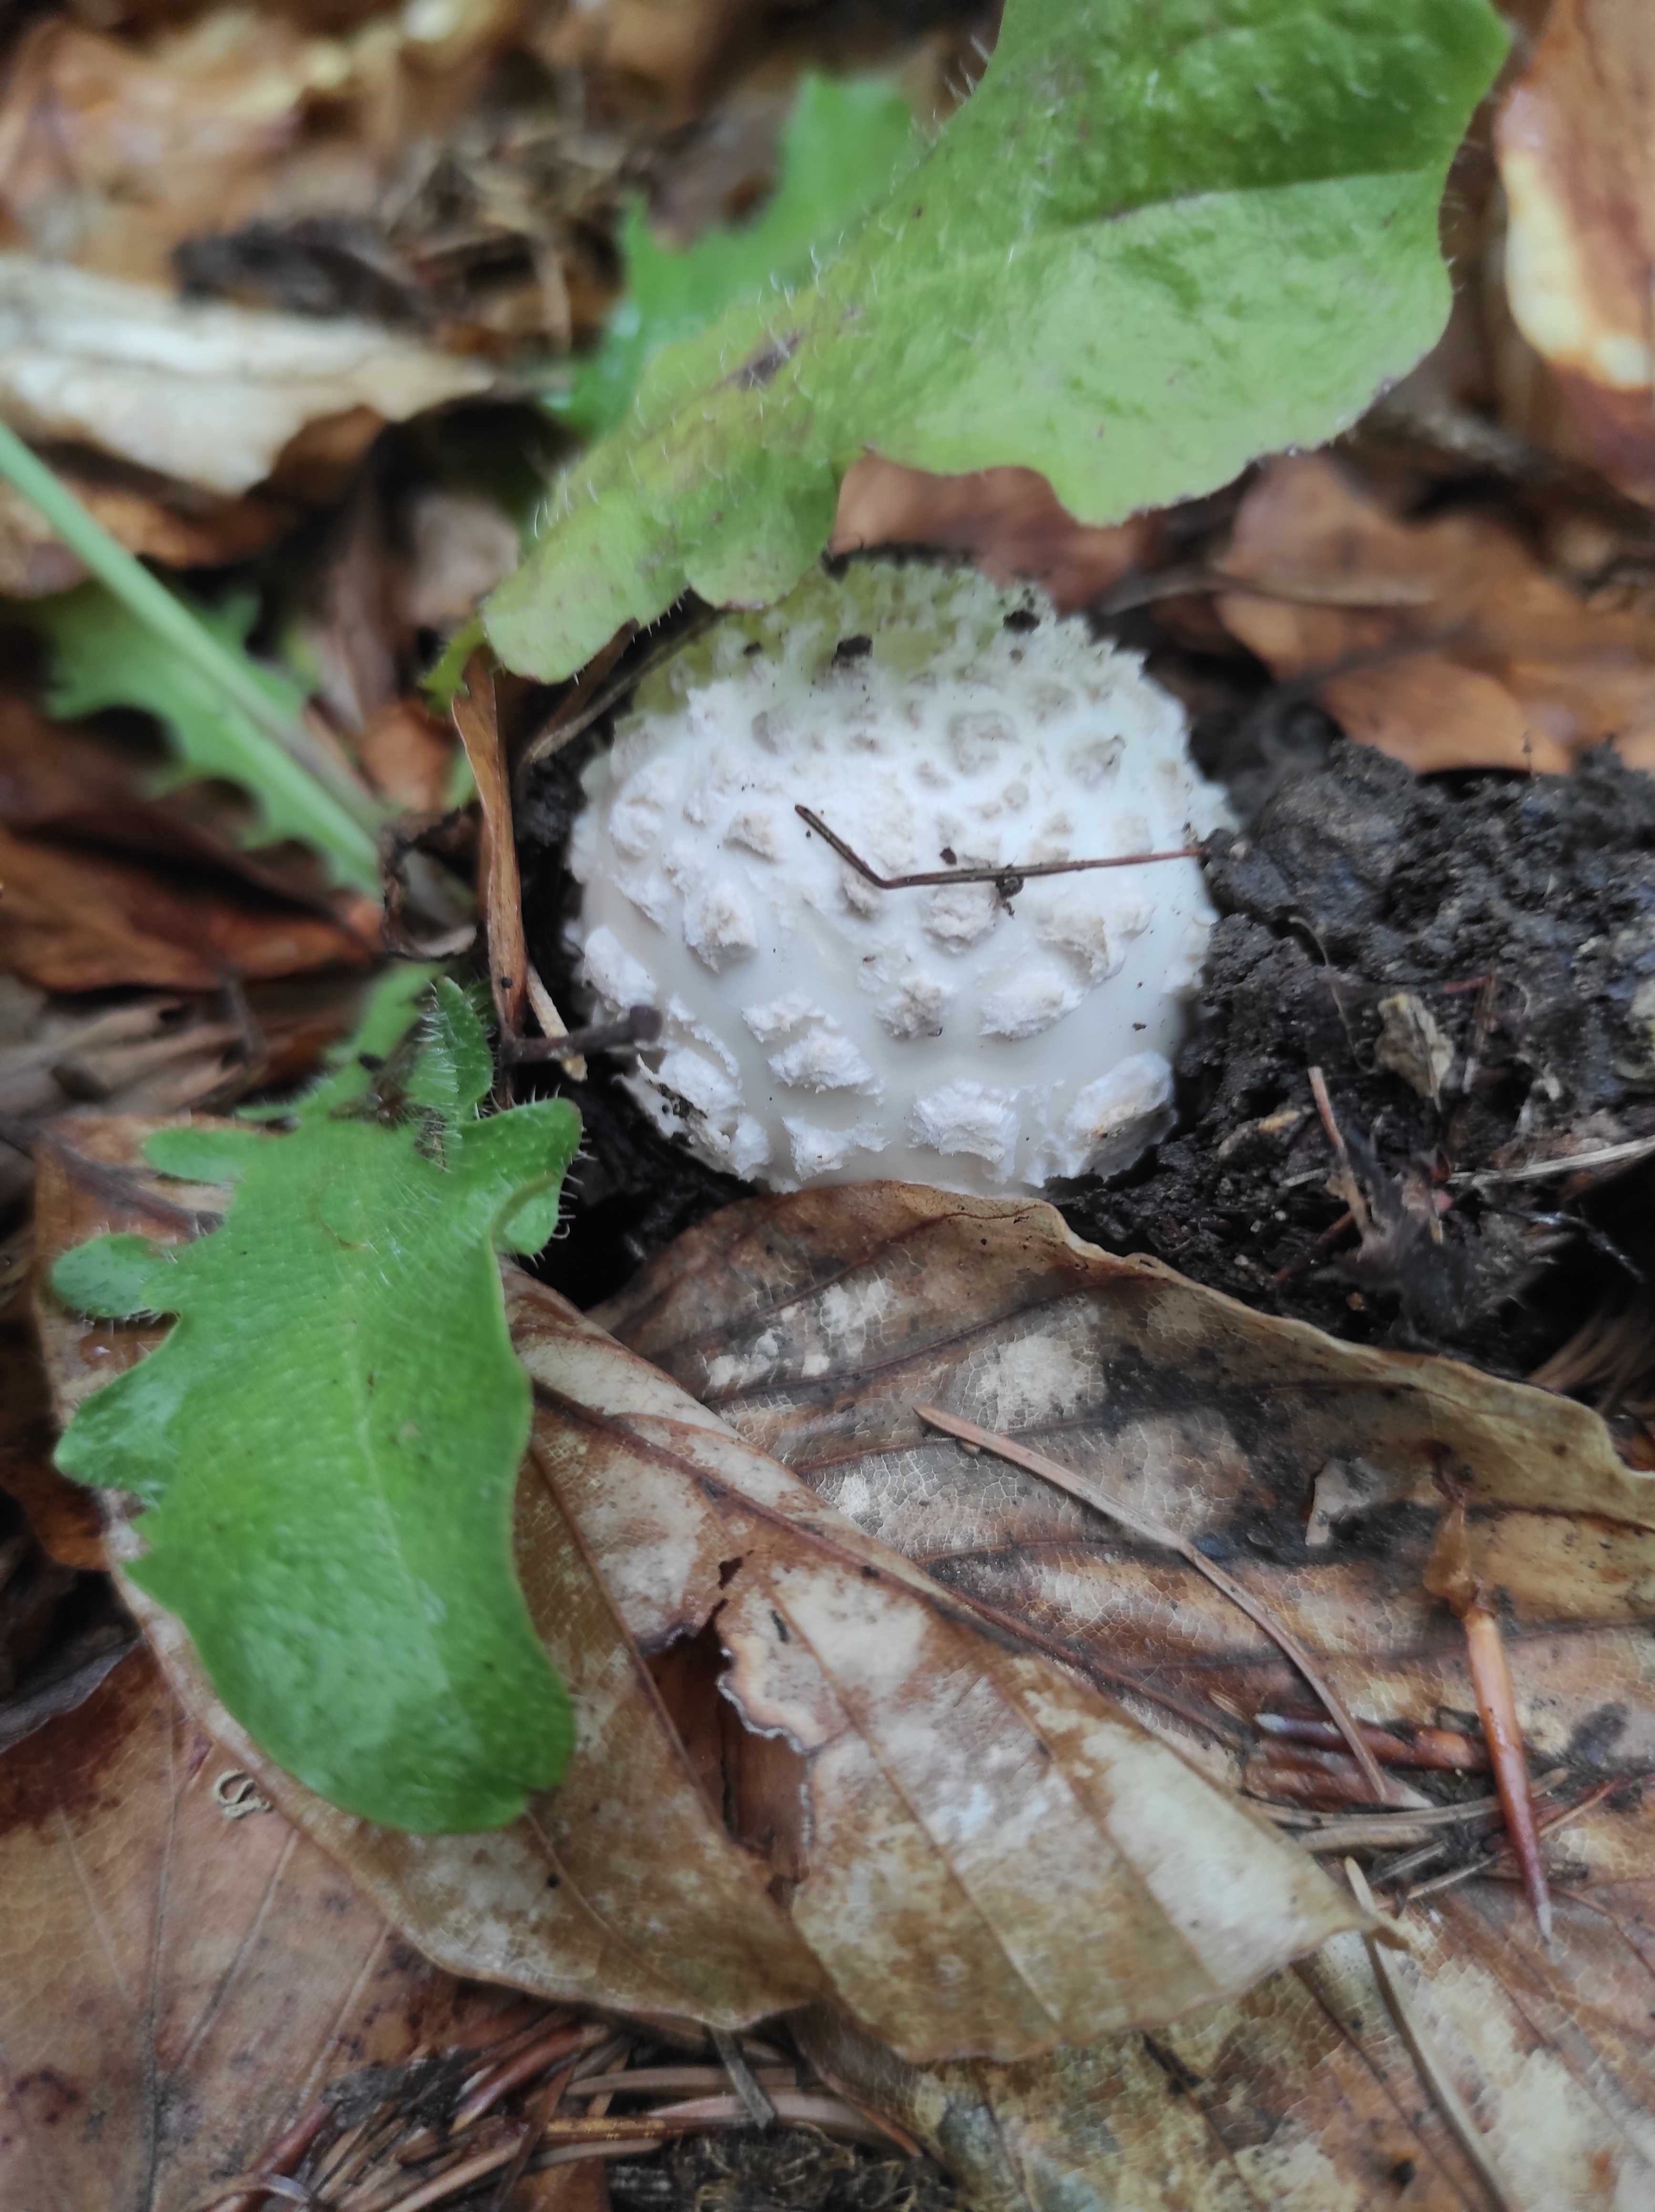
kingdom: Fungi
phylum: Basidiomycota
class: Agaricomycetes
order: Agaricales
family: Amanitaceae
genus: Amanita
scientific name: Amanita
